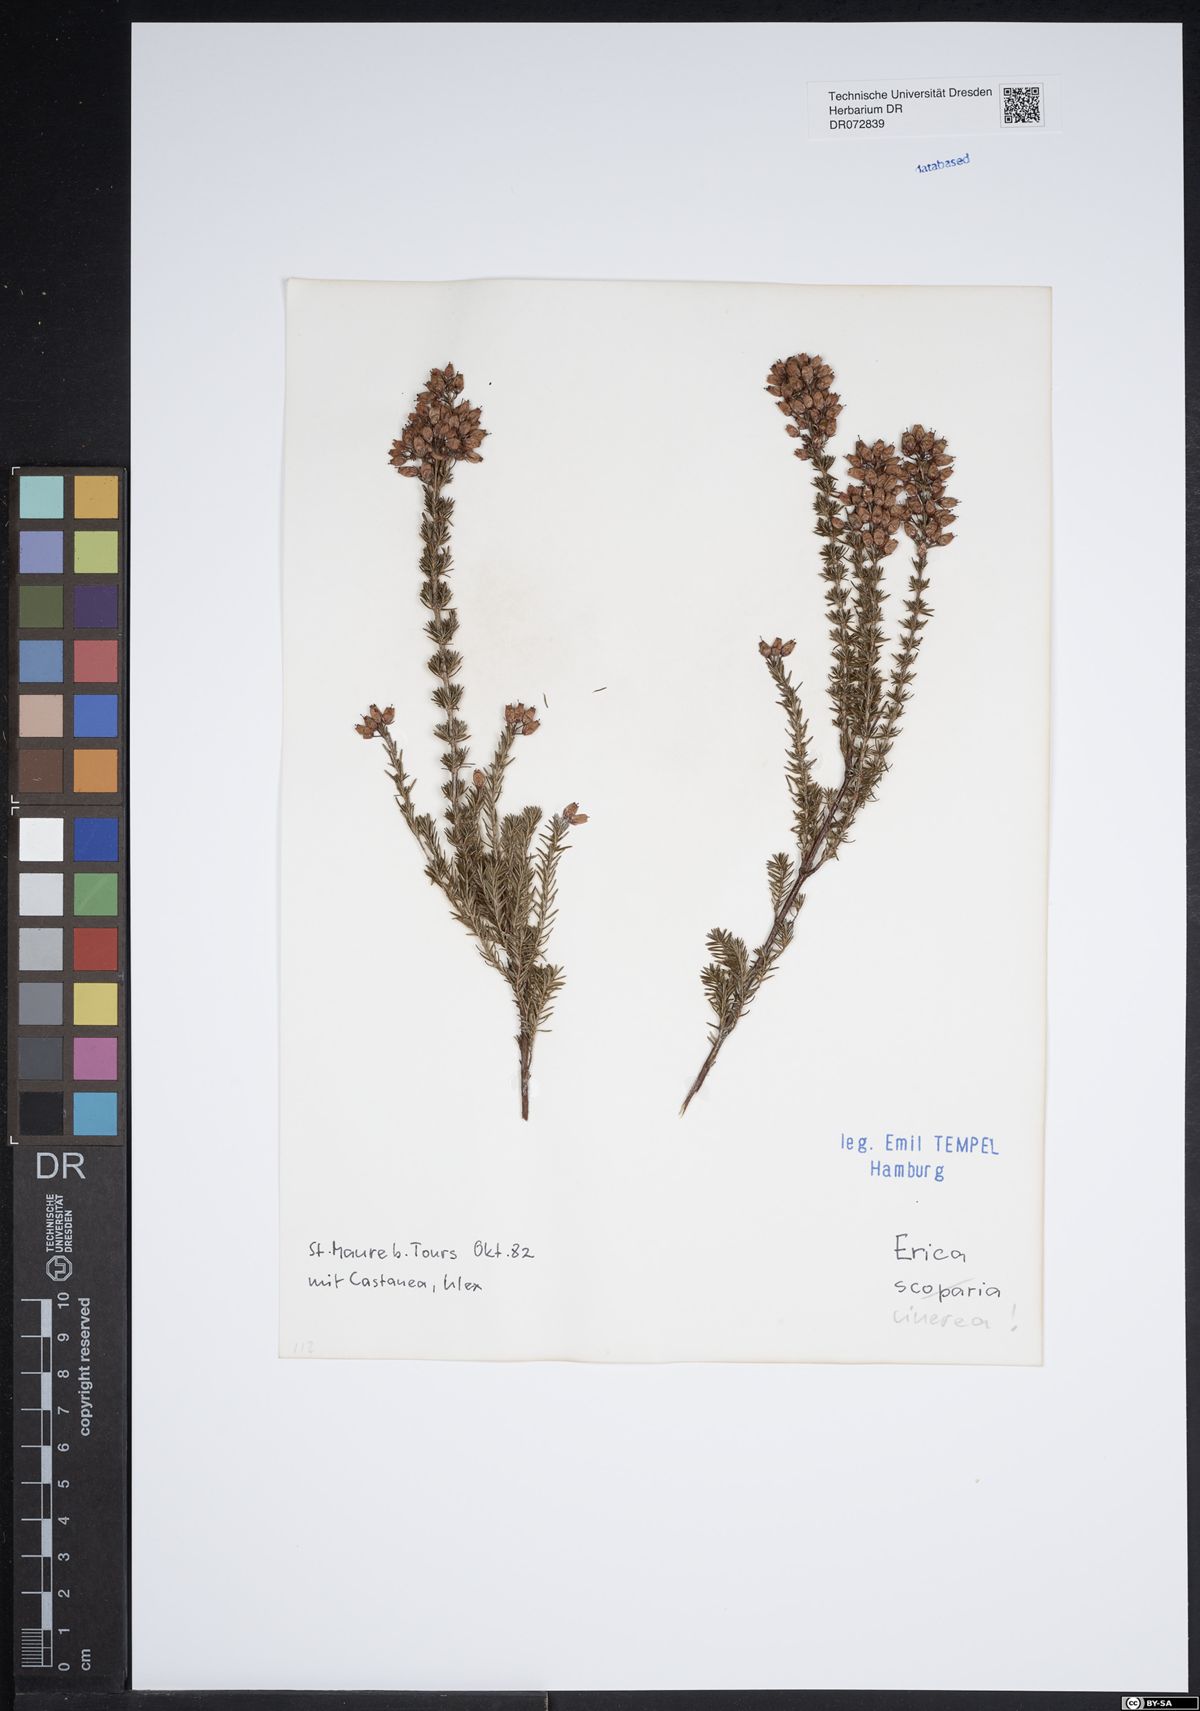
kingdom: Plantae
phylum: Tracheophyta
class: Magnoliopsida
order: Ericales
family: Ericaceae
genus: Erica
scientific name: Erica cinerea
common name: Bell heather
